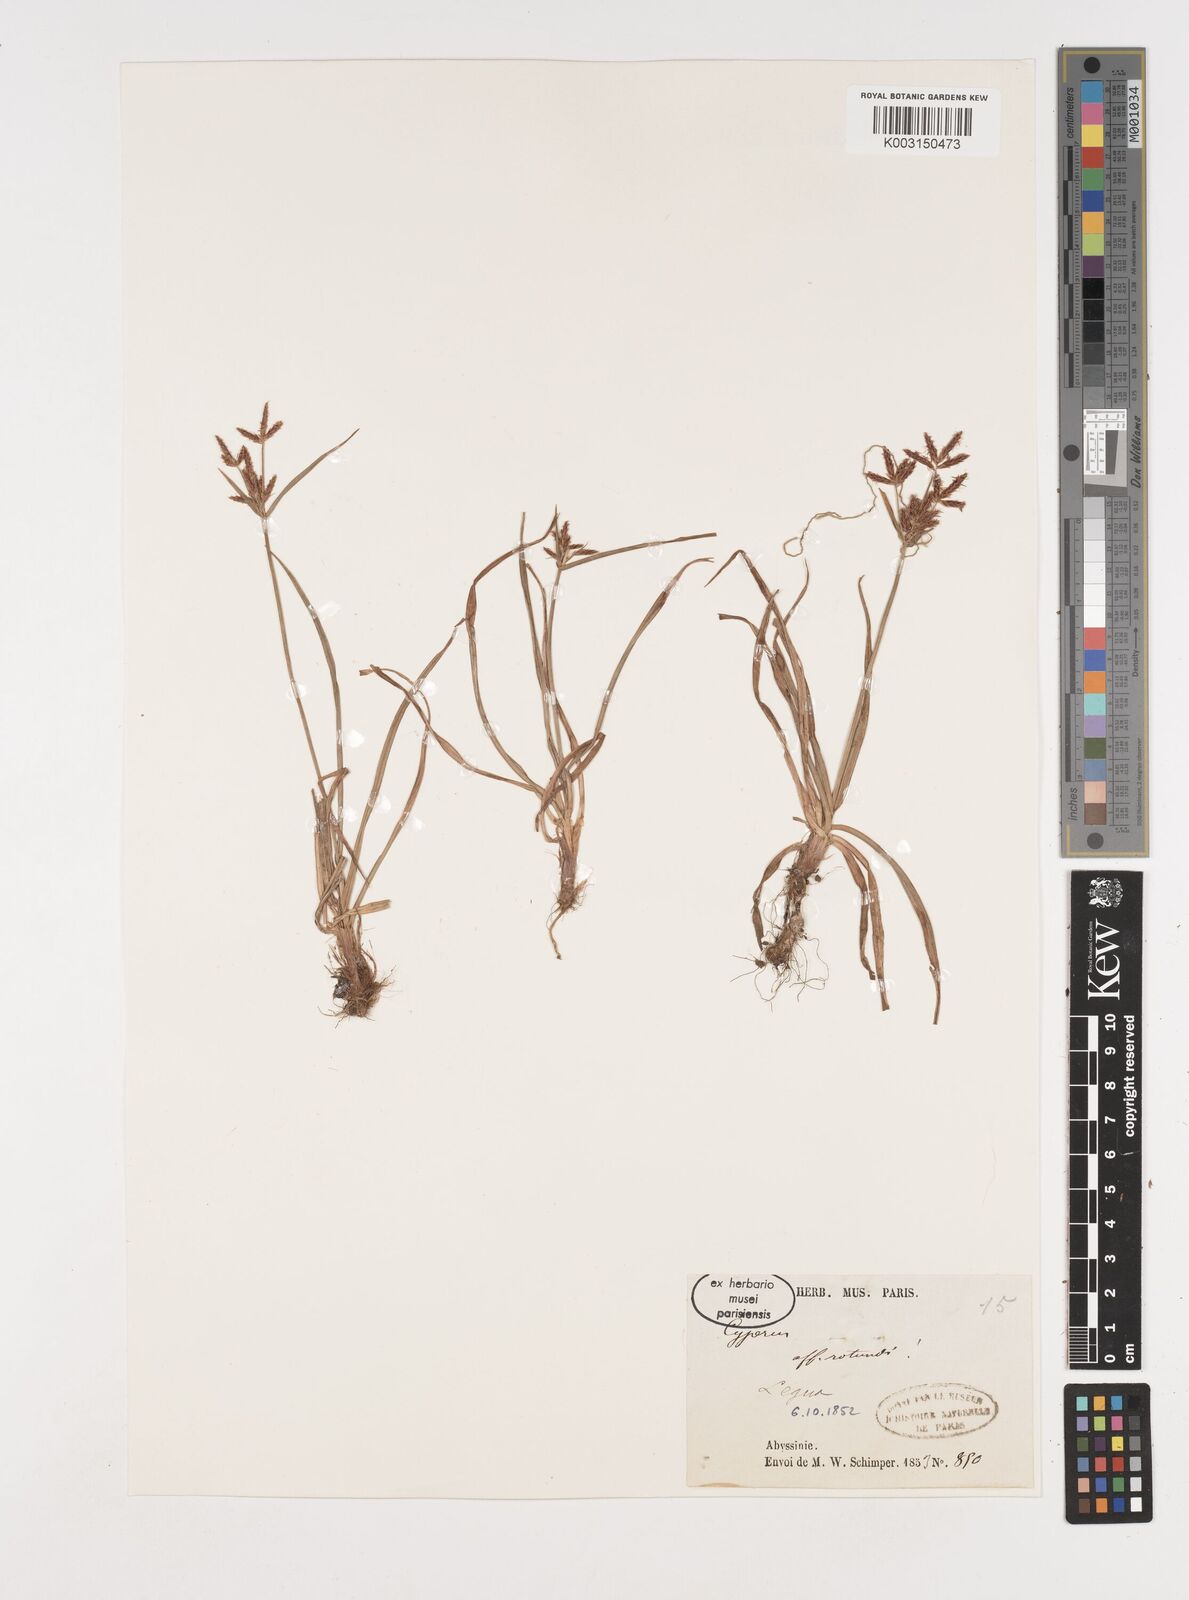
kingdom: Plantae
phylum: Tracheophyta
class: Liliopsida
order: Poales
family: Cyperaceae
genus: Cyperus
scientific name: Cyperus rotundus
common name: Nutgrass
